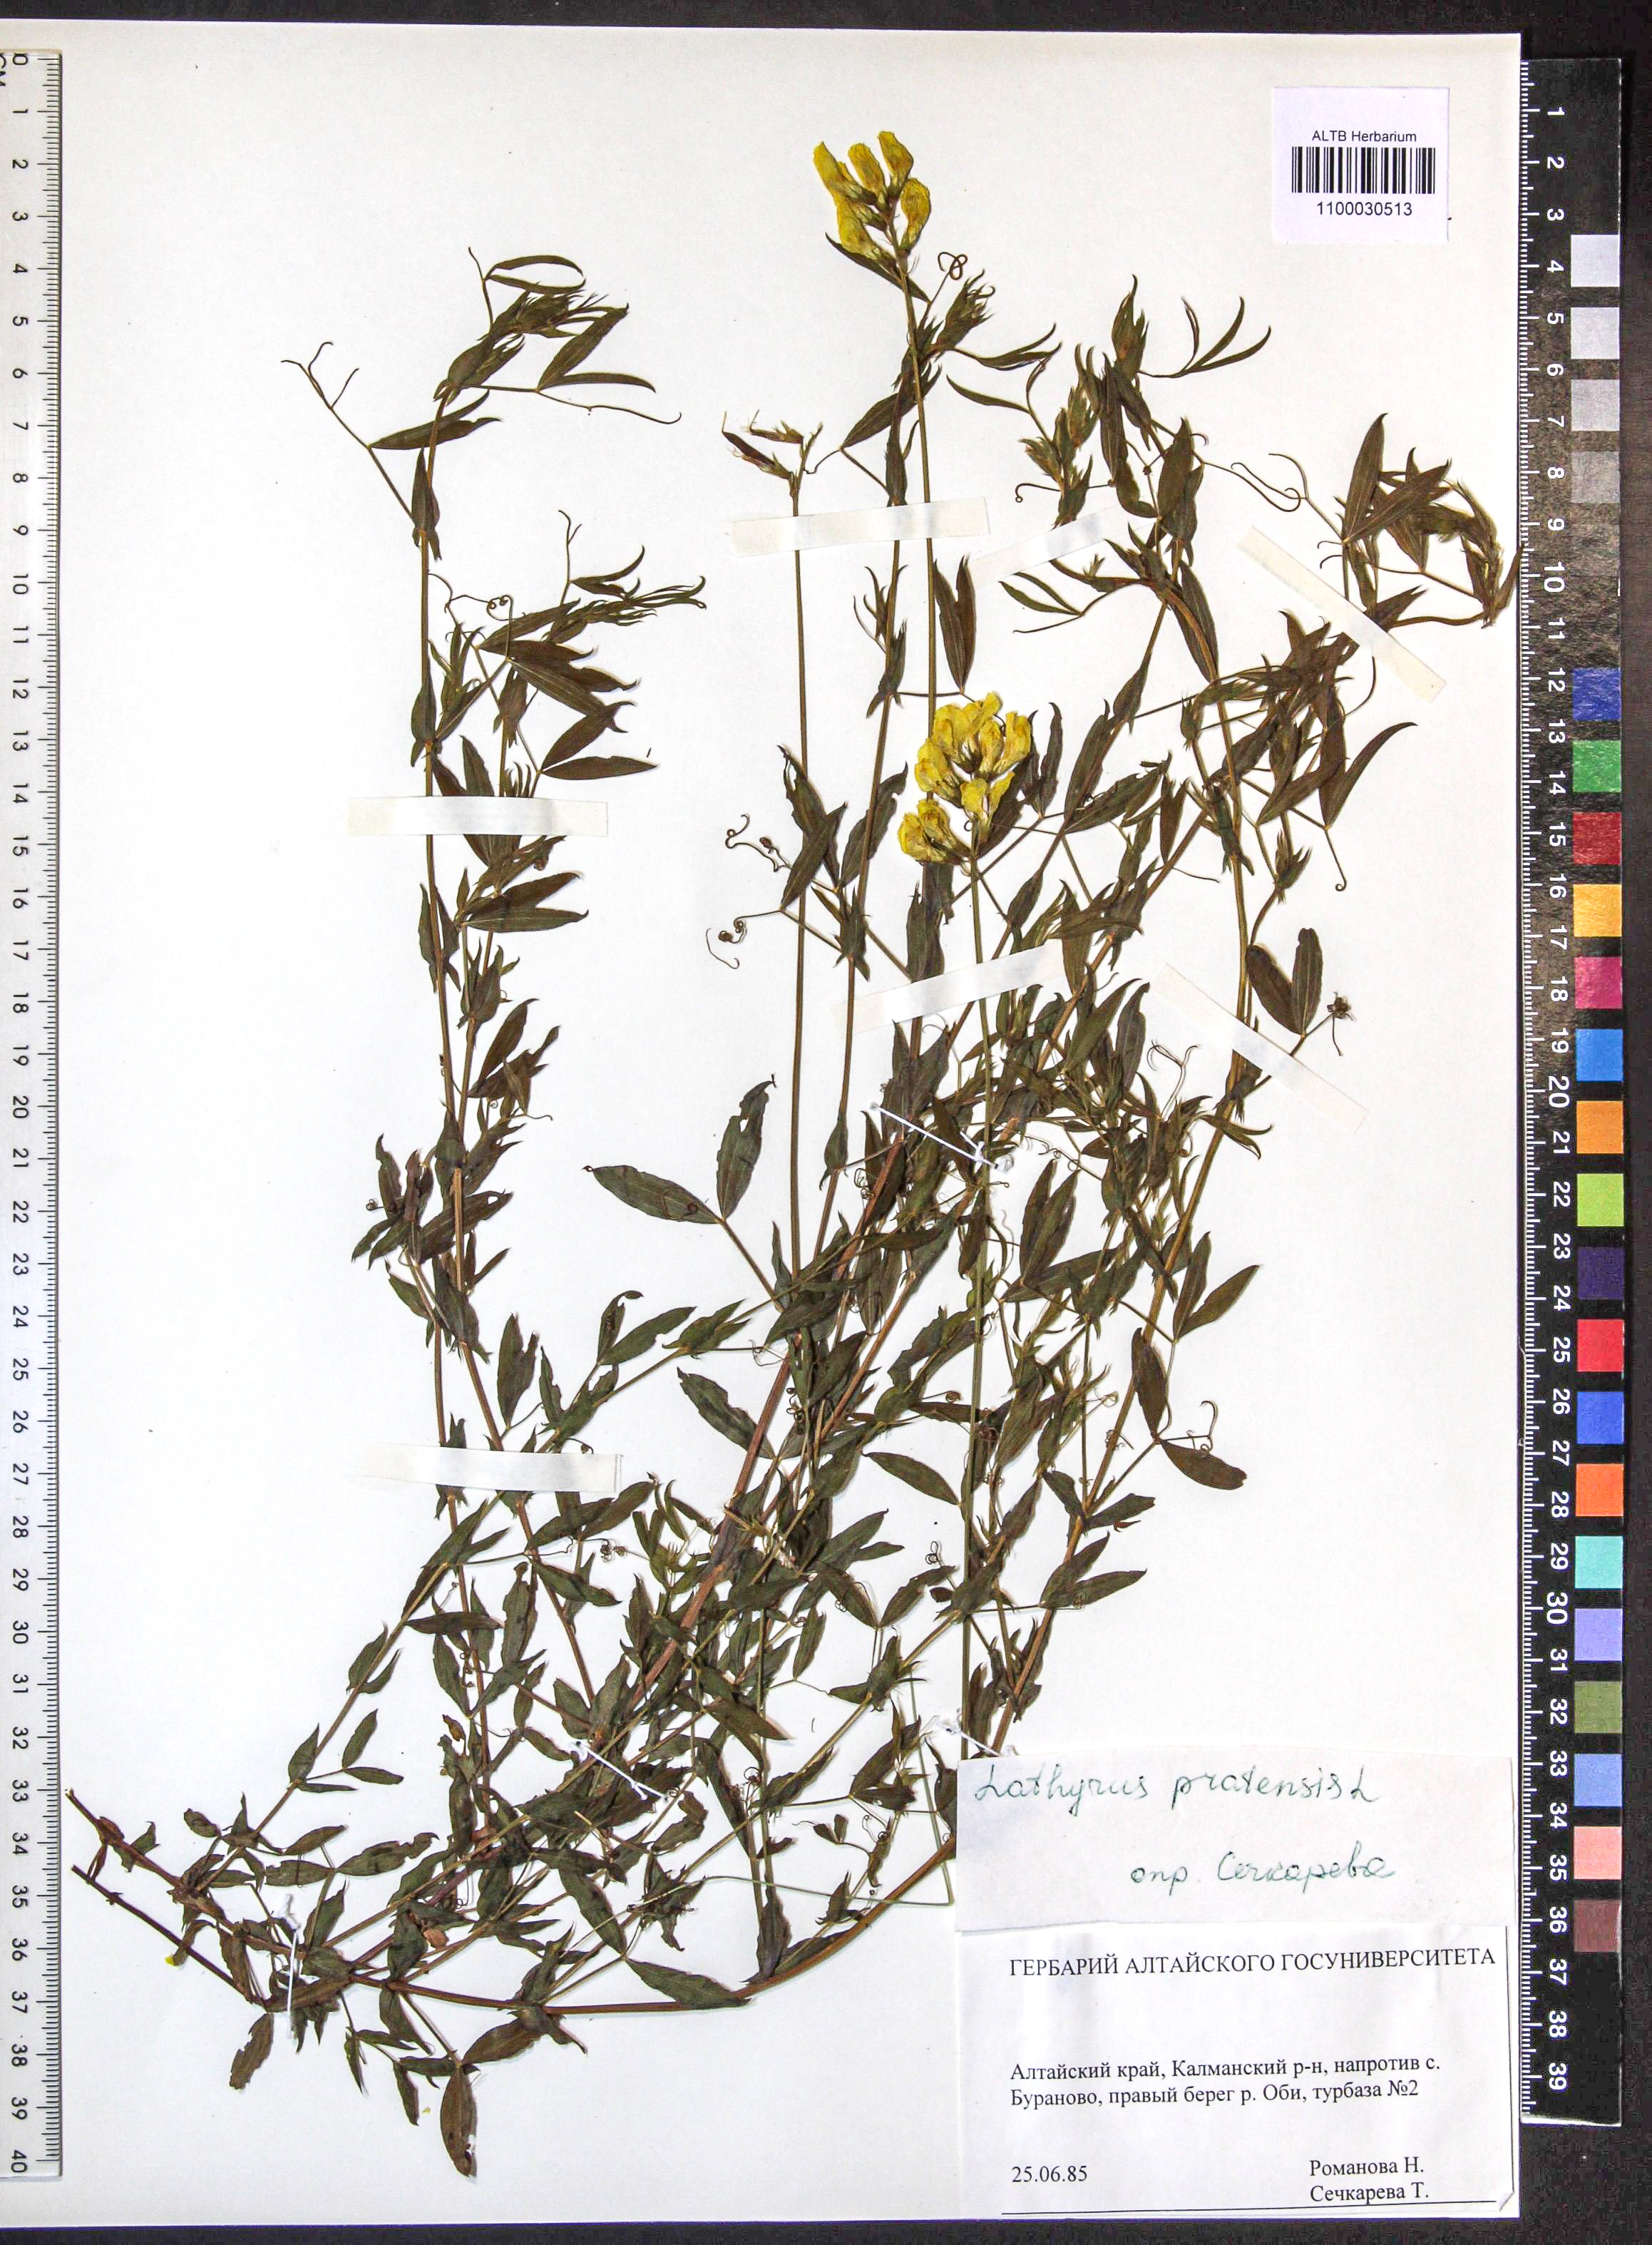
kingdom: Plantae
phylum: Tracheophyta
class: Magnoliopsida
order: Fabales
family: Fabaceae
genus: Lathyrus
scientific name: Lathyrus pratensis
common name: Meadow vetchling
